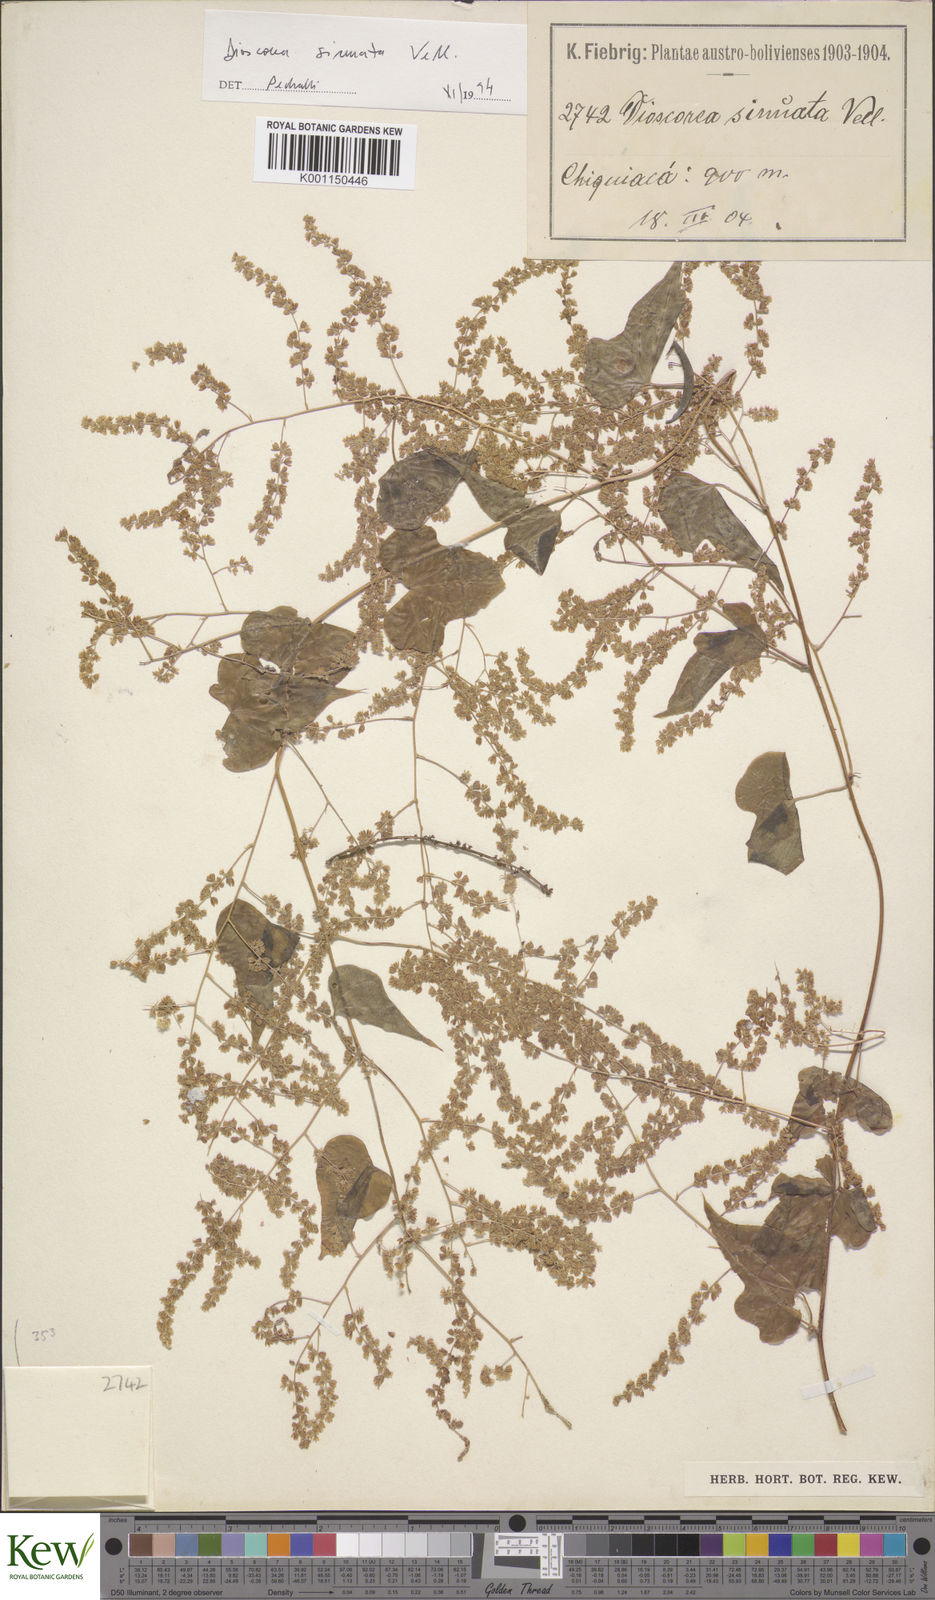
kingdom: Plantae
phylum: Tracheophyta
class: Liliopsida
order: Dioscoreales
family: Dioscoreaceae
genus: Dioscorea
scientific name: Dioscorea sinuata
